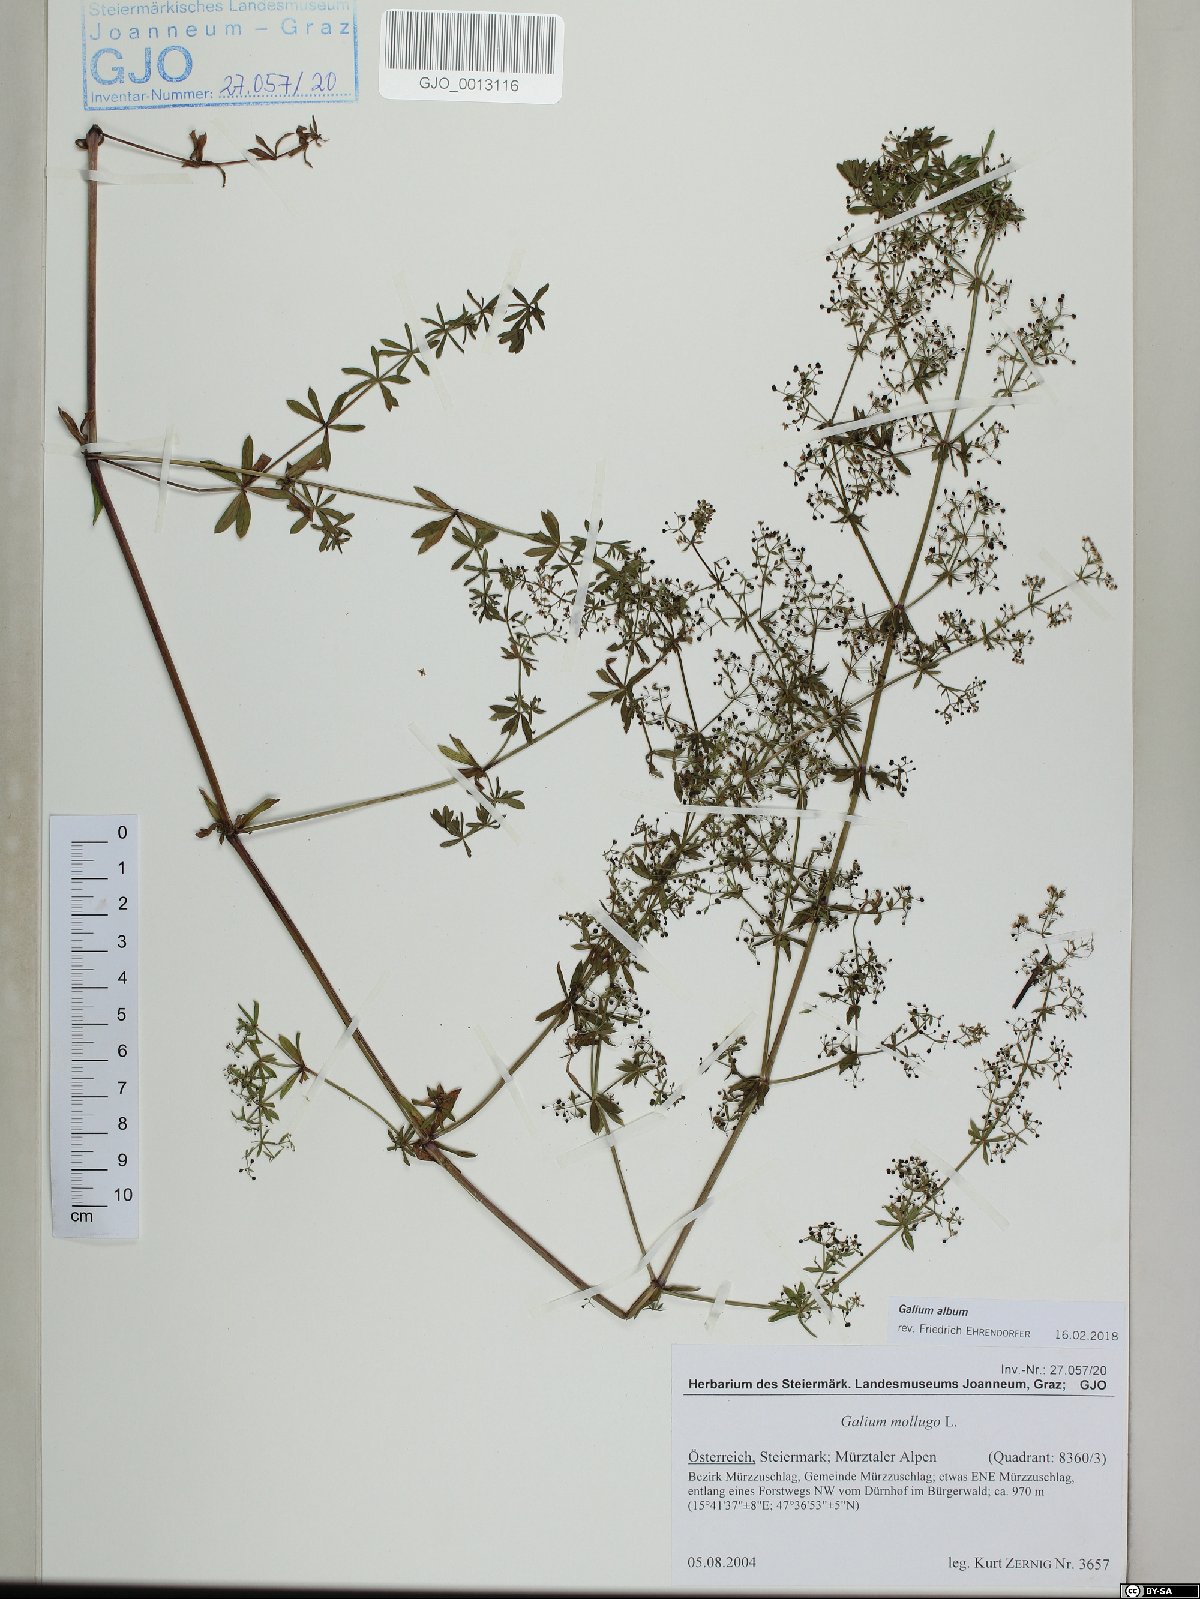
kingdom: Plantae
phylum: Tracheophyta
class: Magnoliopsida
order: Gentianales
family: Rubiaceae
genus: Galium
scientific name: Galium album
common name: White bedstraw
